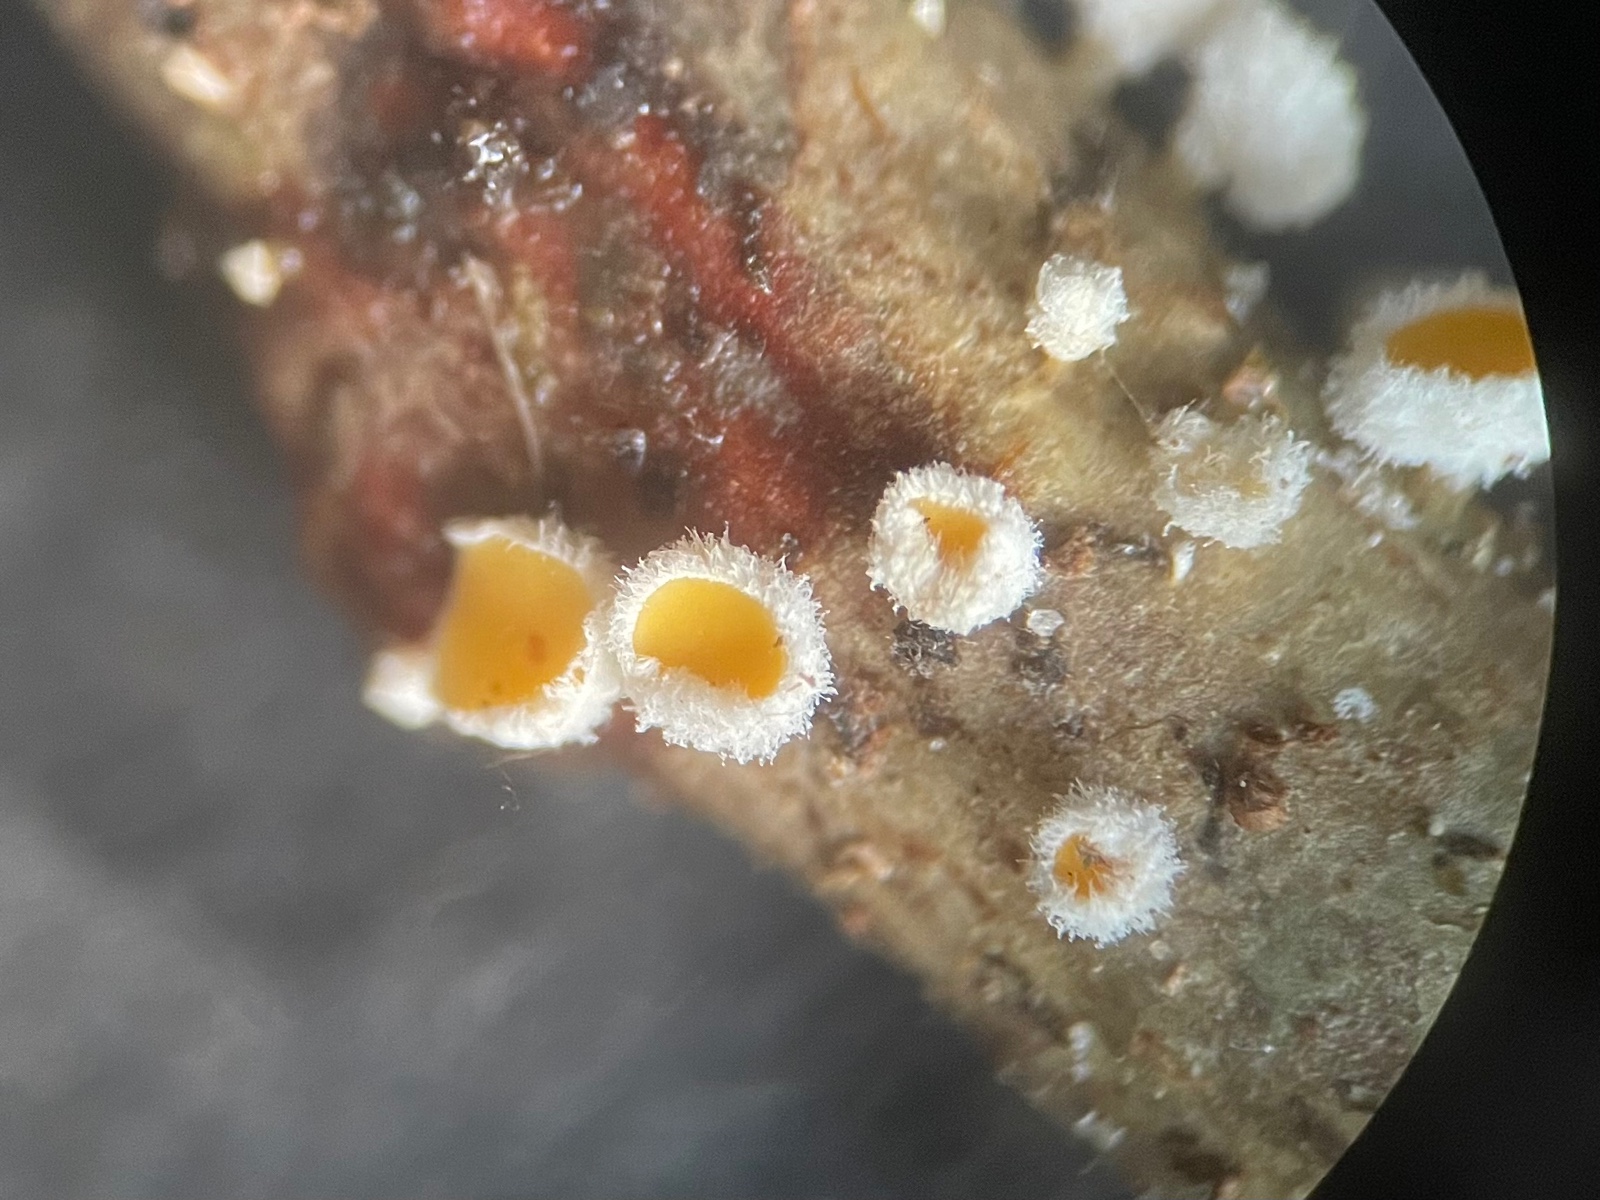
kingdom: Fungi
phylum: Ascomycota
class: Leotiomycetes
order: Helotiales
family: Lachnaceae
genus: Capitotricha
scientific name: Capitotricha bicolor
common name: prægtig frynseskive
